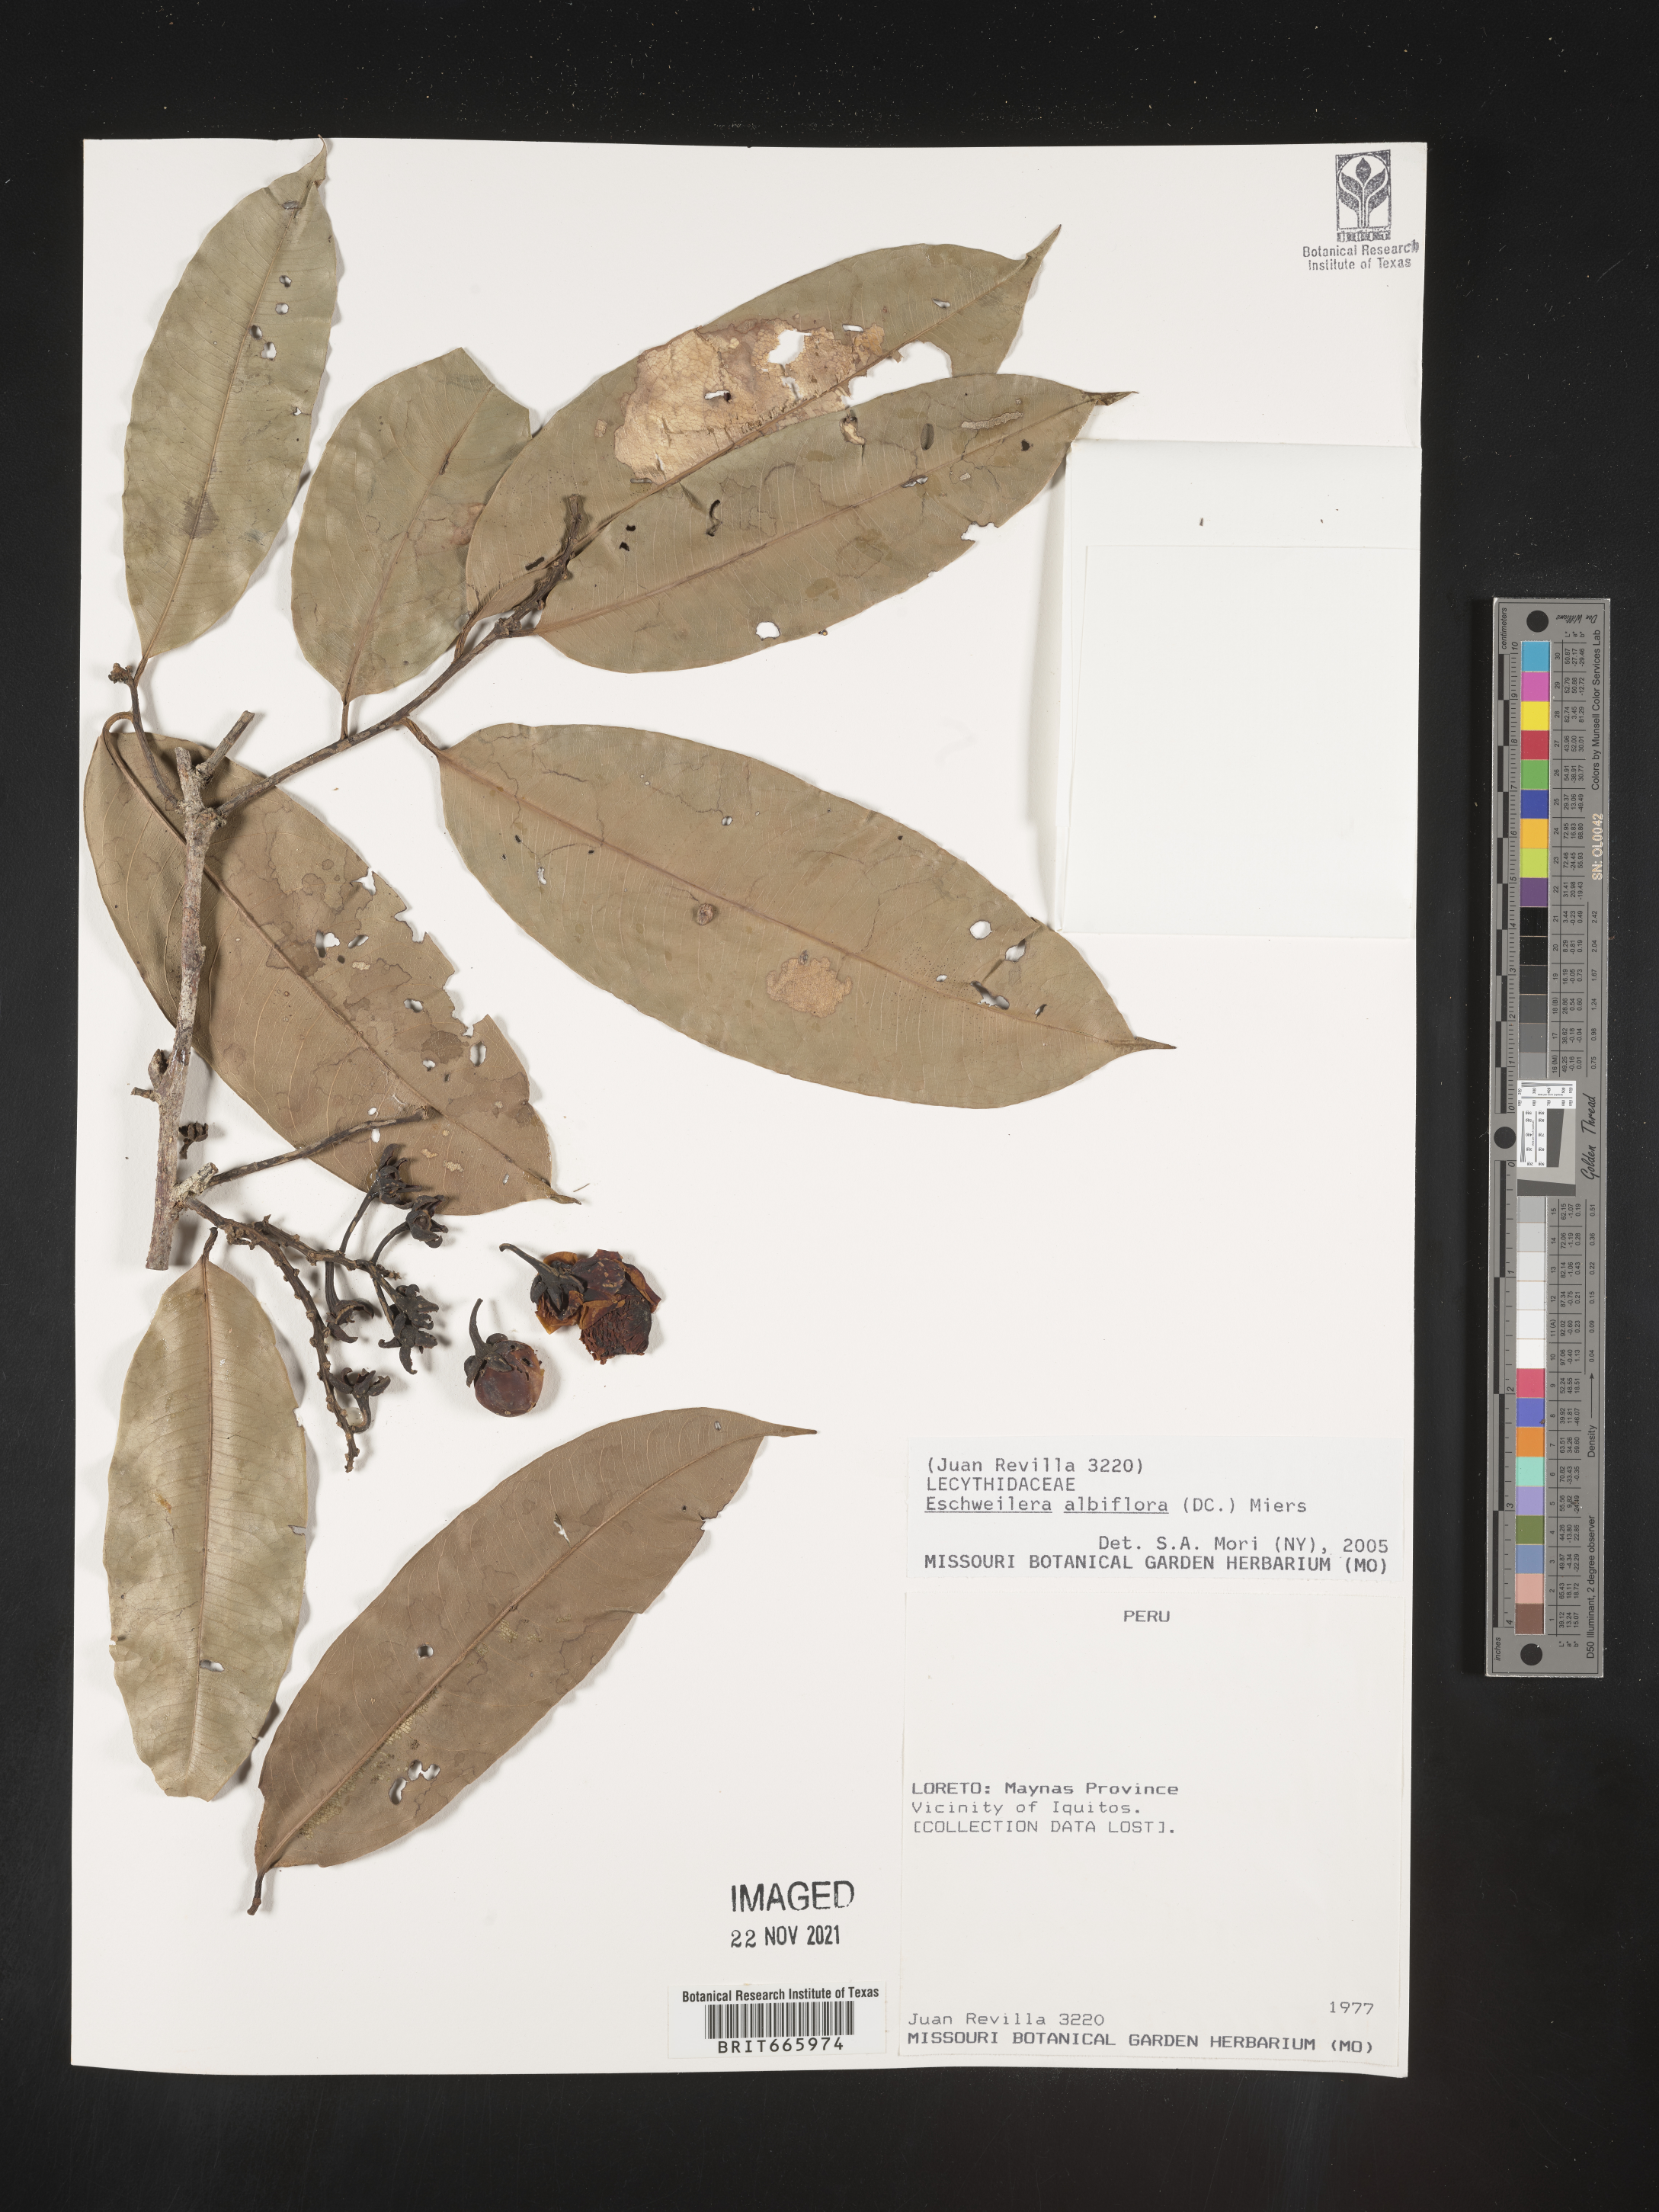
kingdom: Plantae
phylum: Tracheophyta
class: Magnoliopsida
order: Ericales
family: Lecythidaceae
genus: Eschweilera
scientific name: Eschweilera
